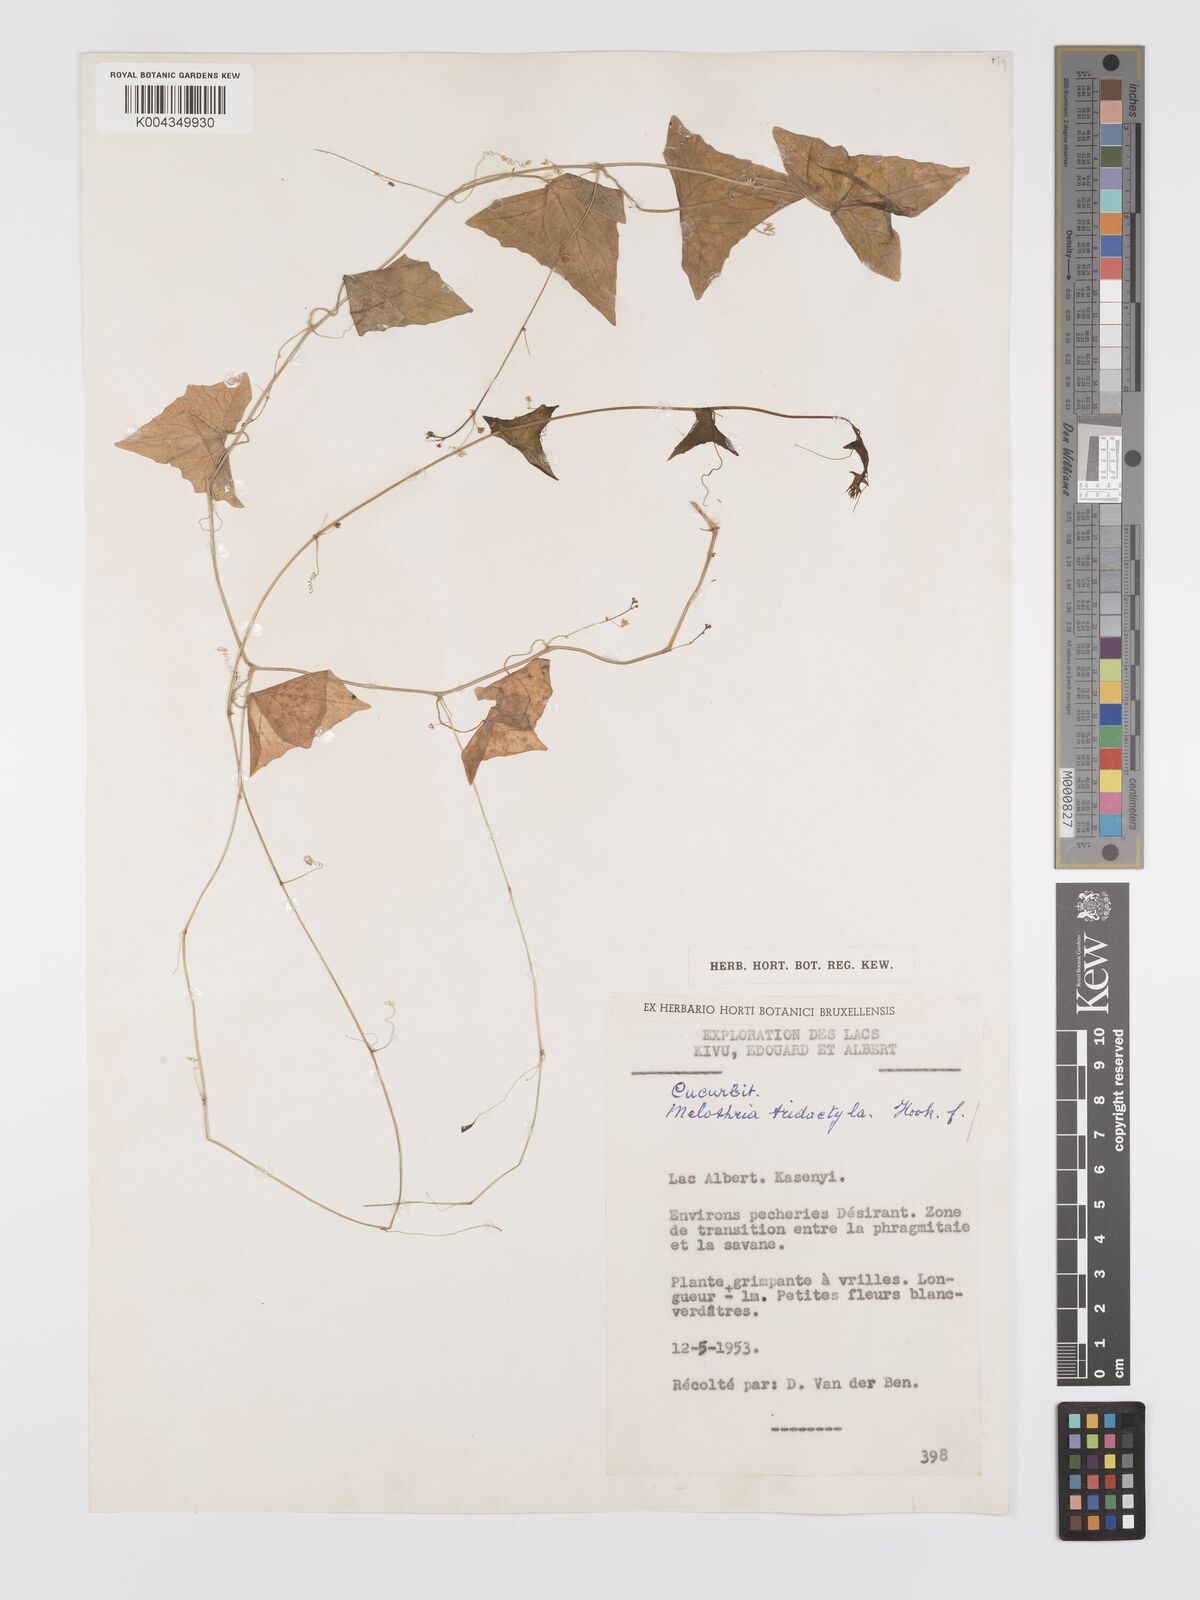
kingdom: Plantae
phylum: Tracheophyta
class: Magnoliopsida
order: Cucurbitales
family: Cucurbitaceae
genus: Zehneria
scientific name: Zehneria thwaitesii
